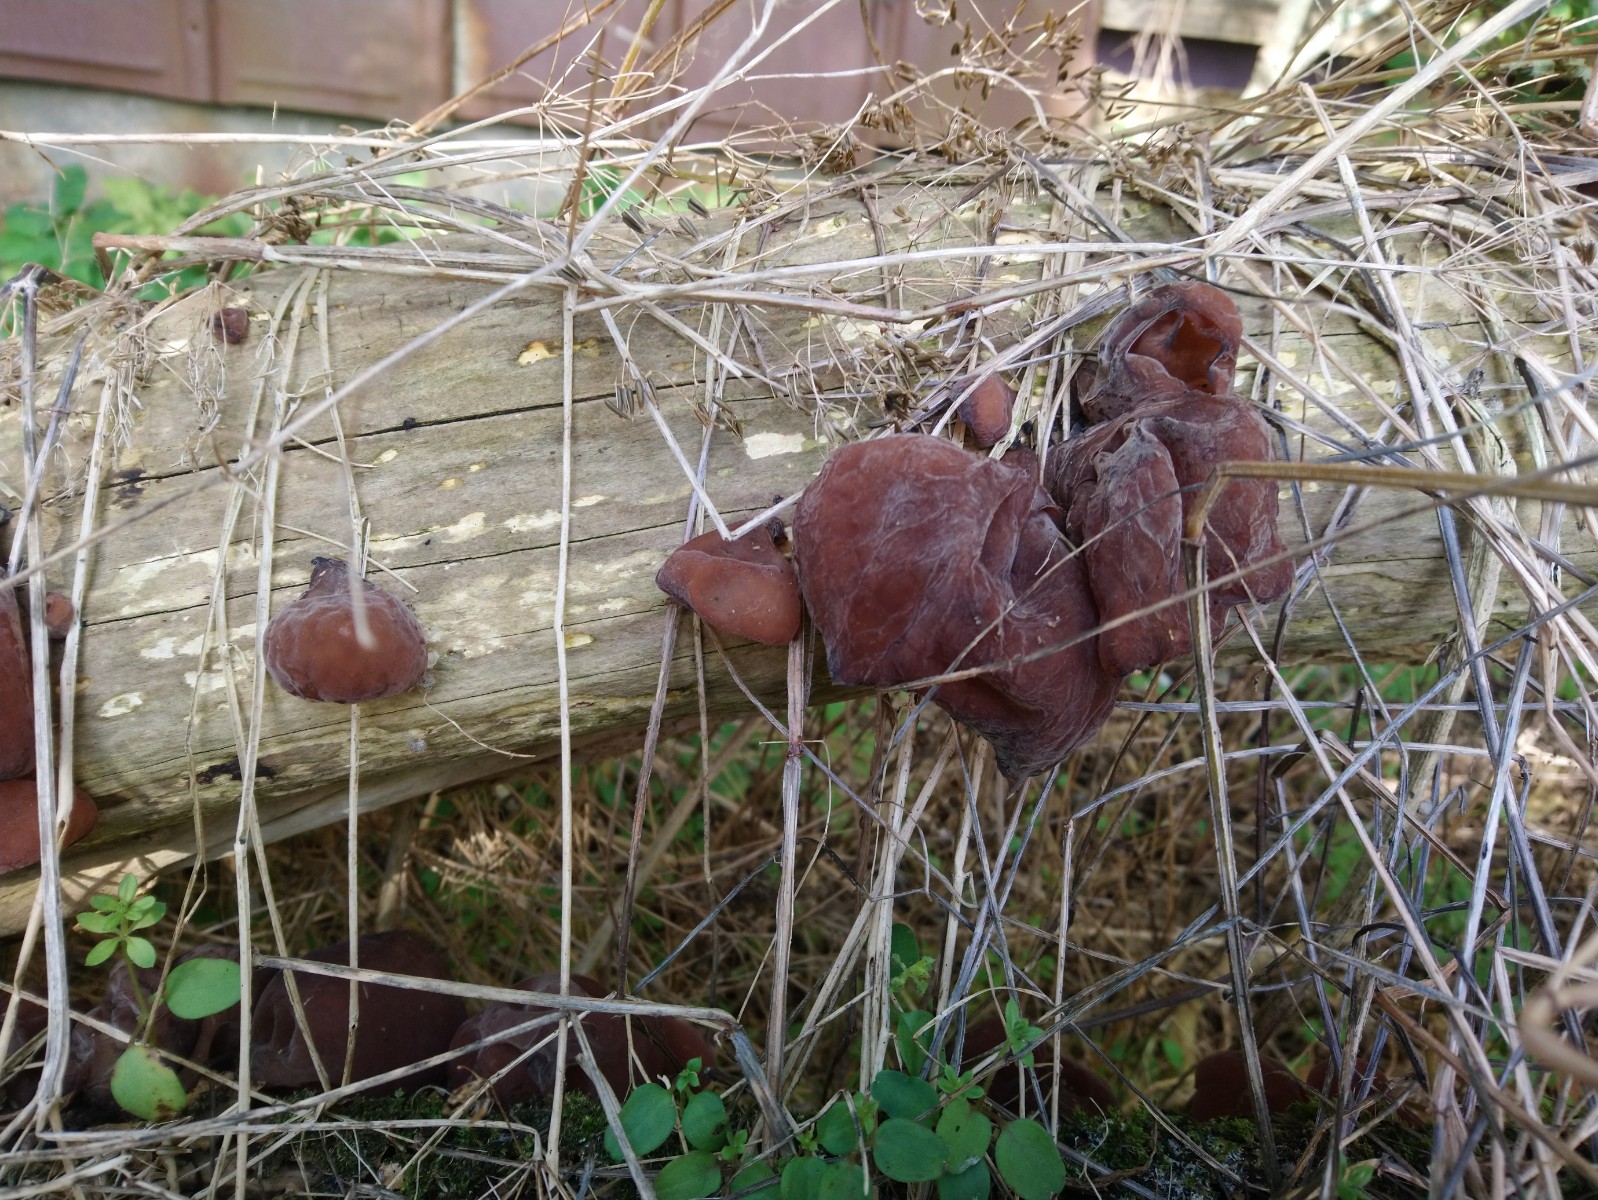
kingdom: Fungi
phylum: Basidiomycota
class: Agaricomycetes
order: Auriculariales
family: Auriculariaceae
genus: Auricularia
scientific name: Auricularia auricula-judae
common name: almindelig judasøre
